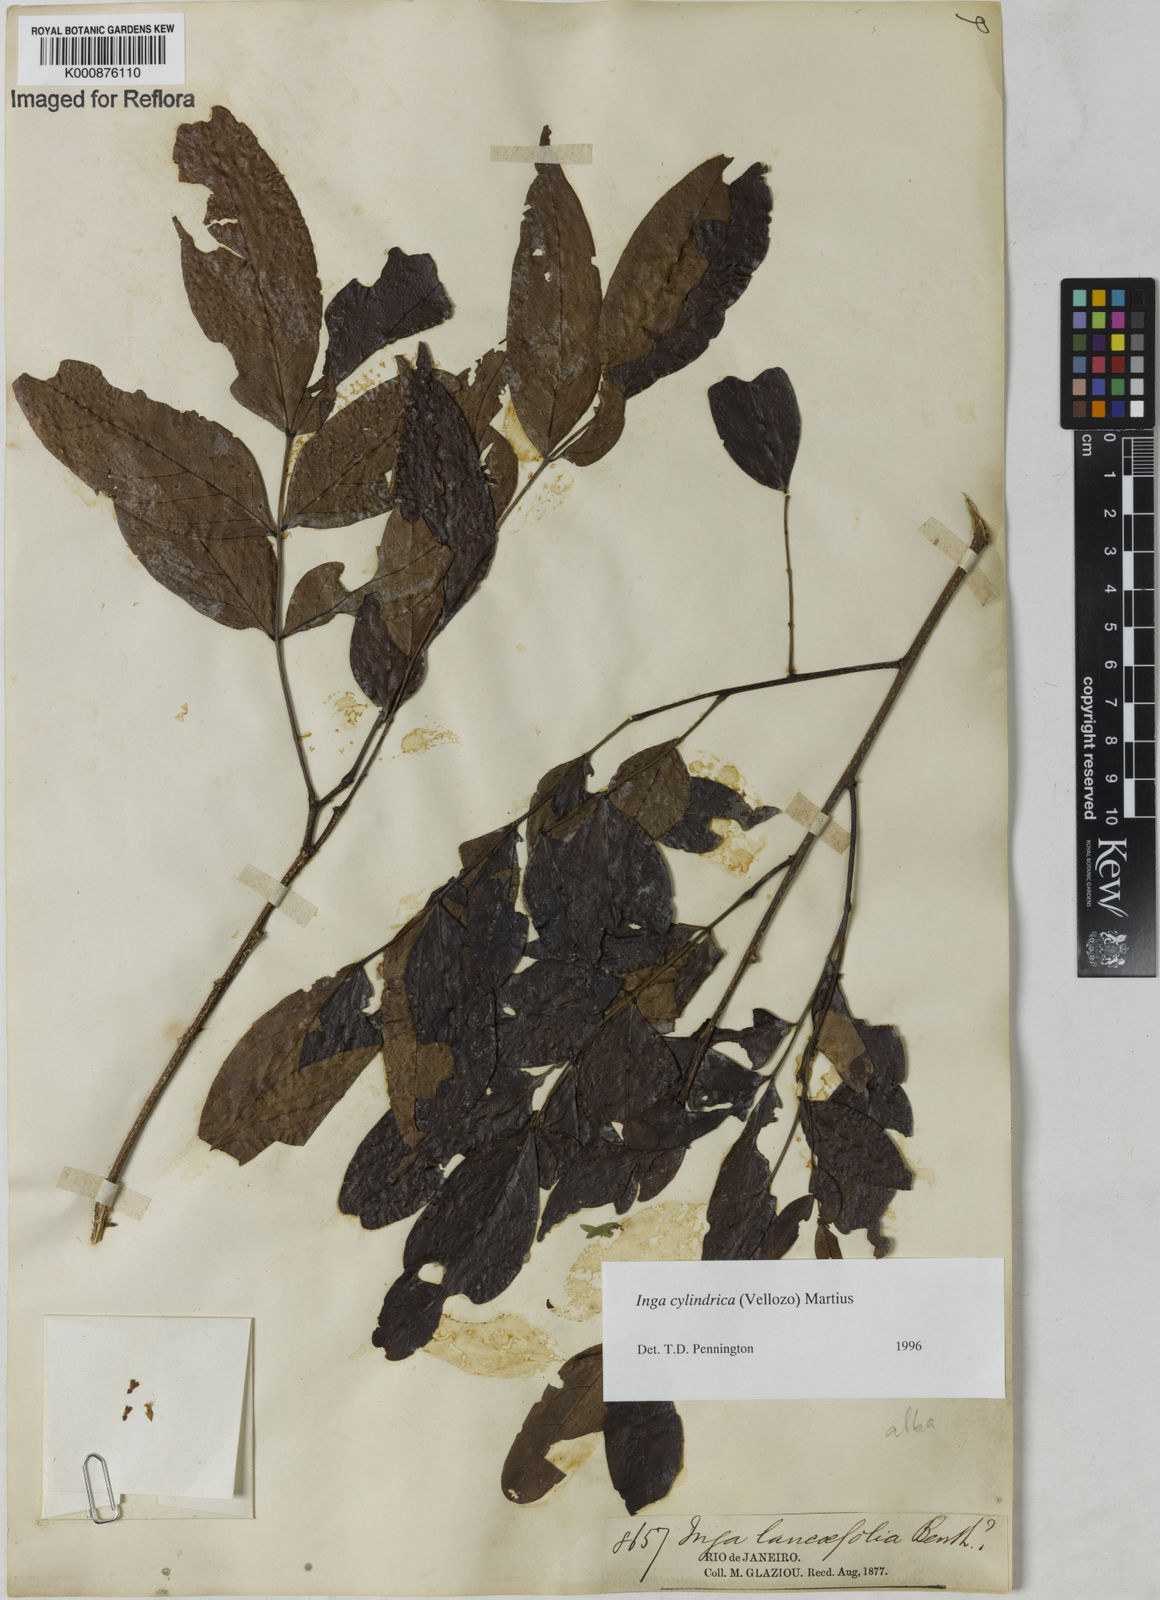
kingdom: Plantae
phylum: Tracheophyta
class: Magnoliopsida
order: Fabales
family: Fabaceae
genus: Inga
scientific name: Inga cylindrica
